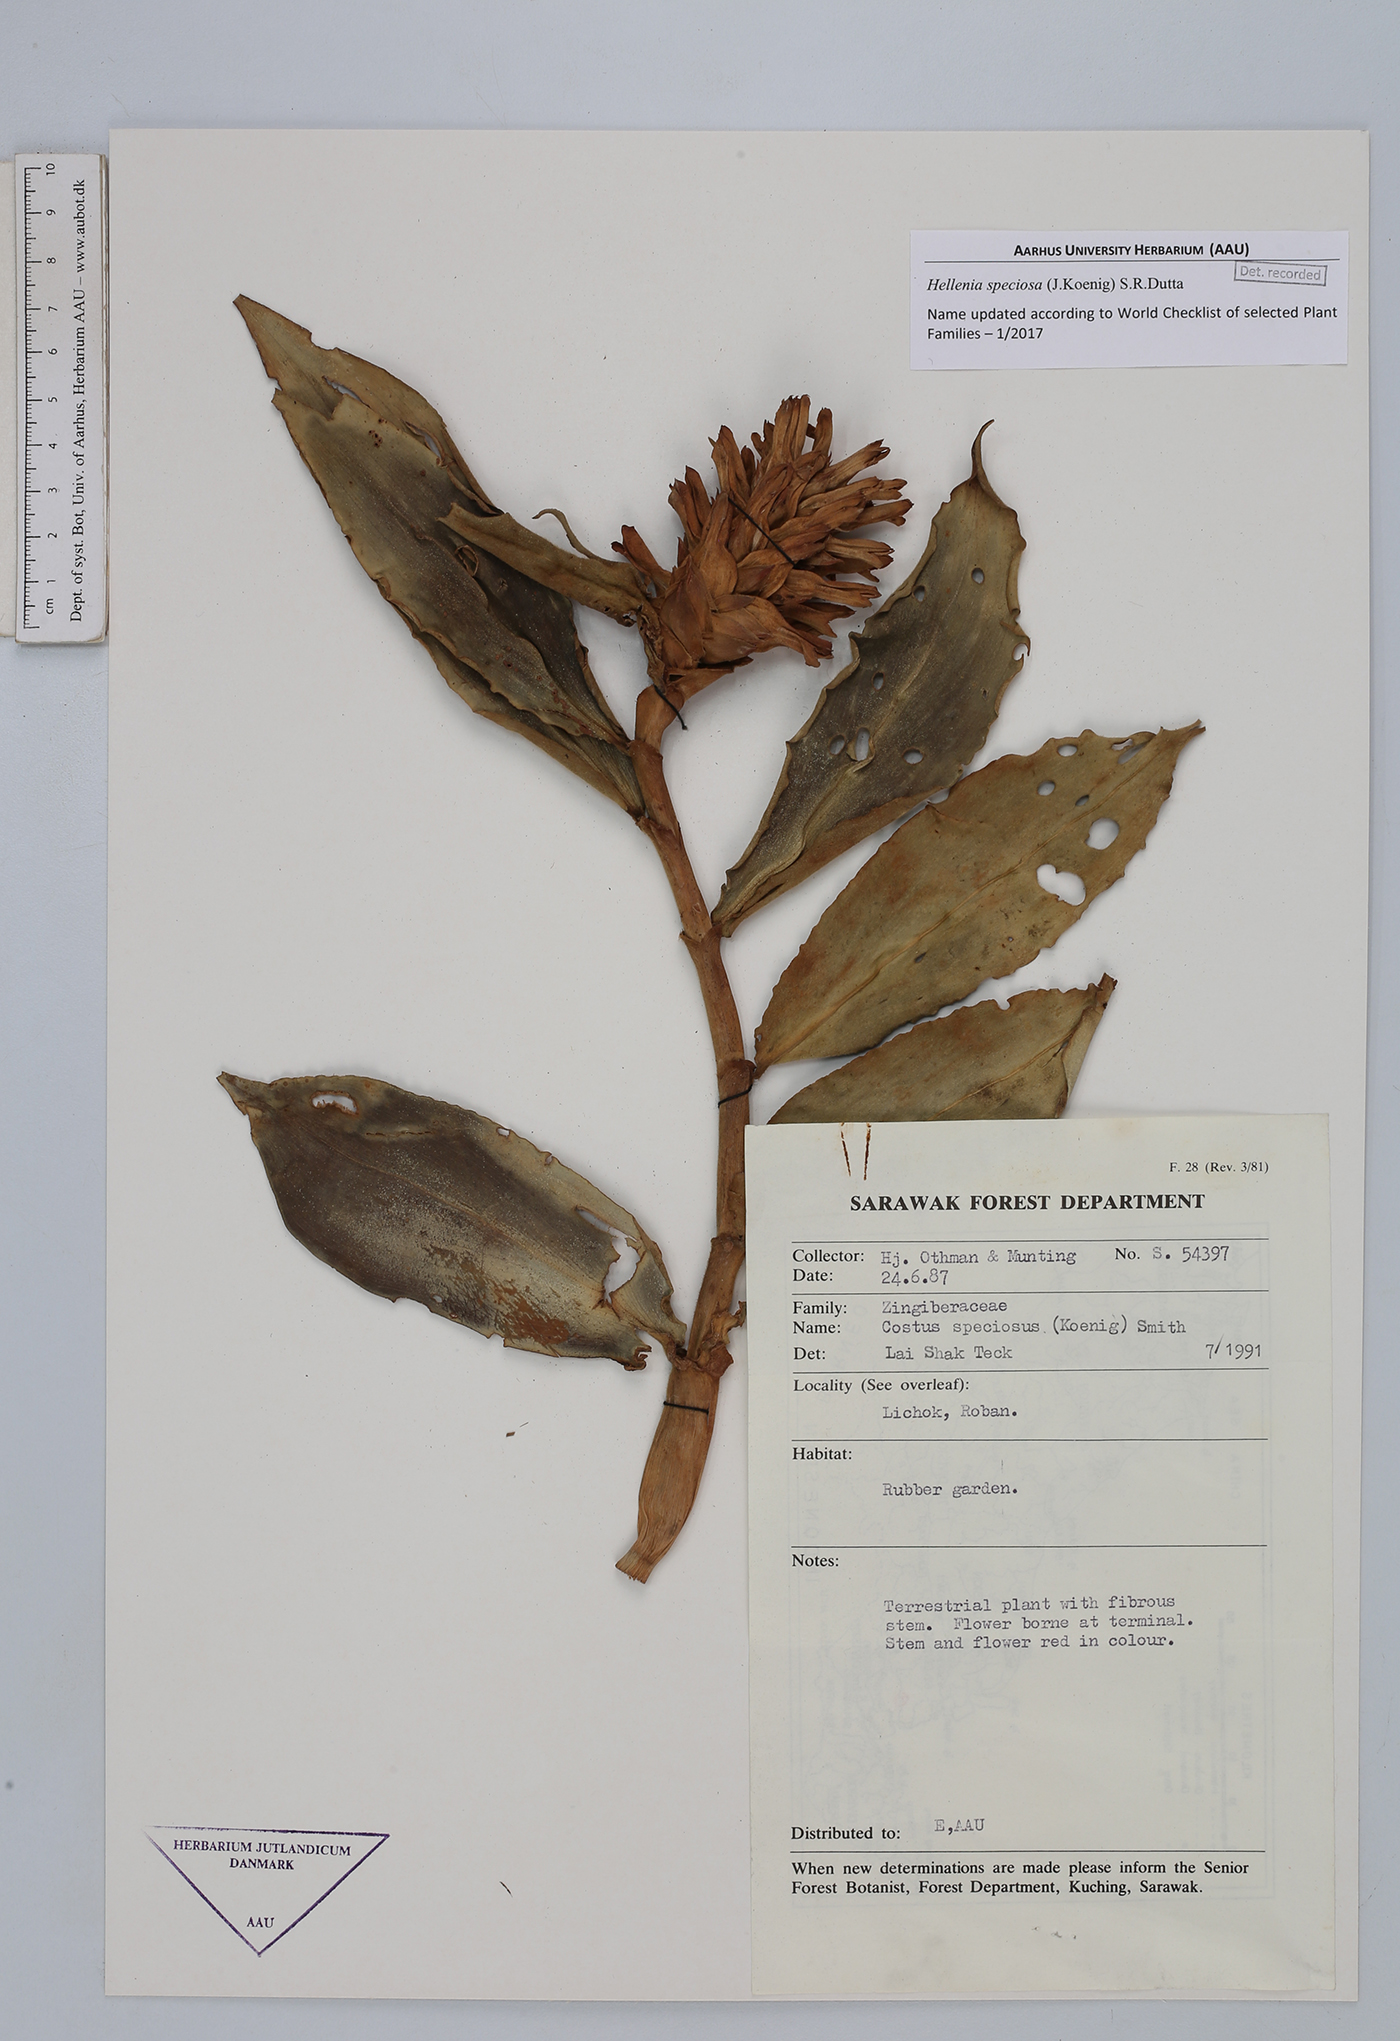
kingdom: Plantae
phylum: Tracheophyta
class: Liliopsida
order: Zingiberales
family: Costaceae
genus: Hellenia
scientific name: Hellenia speciosa
